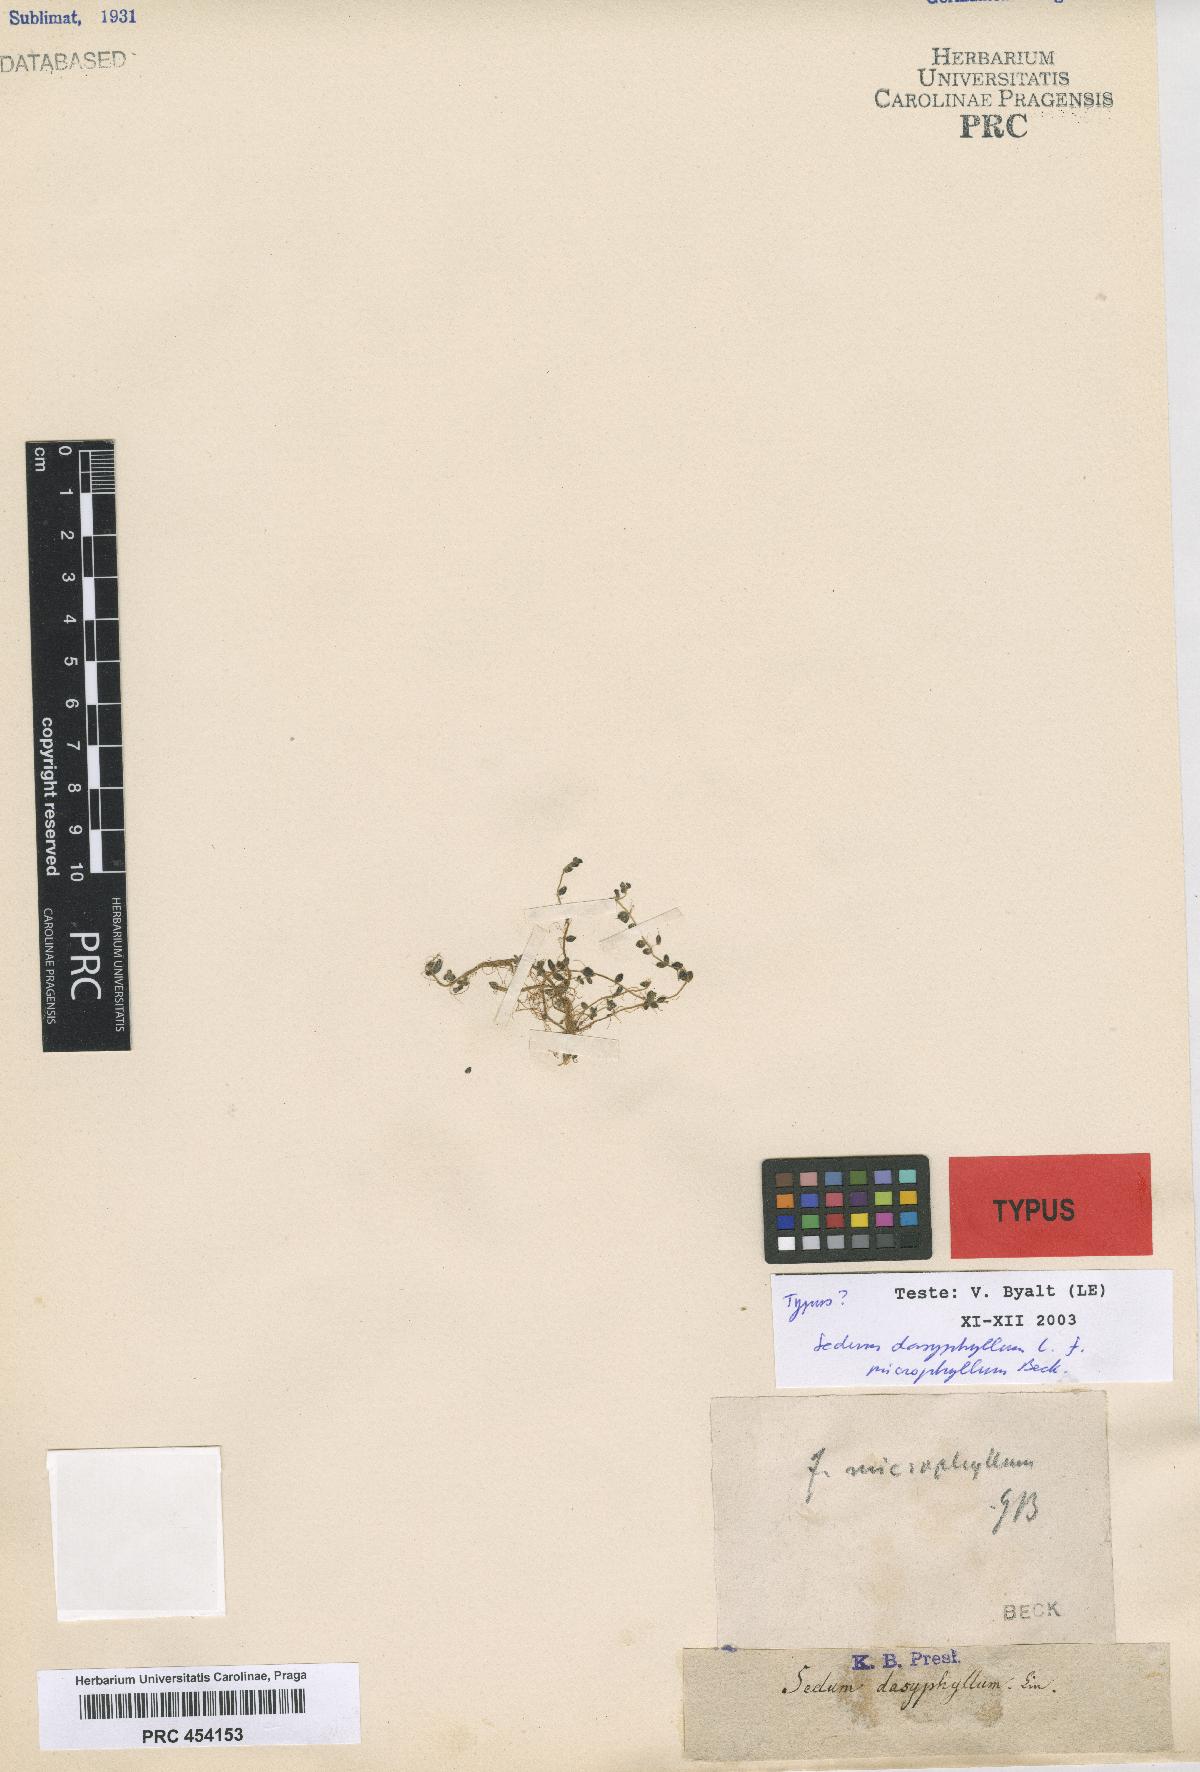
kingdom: Plantae
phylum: Tracheophyta
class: Magnoliopsida
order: Saxifragales
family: Crassulaceae
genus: Sedum
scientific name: Sedum dasyphyllum
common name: Thick-leaf stonecrop
